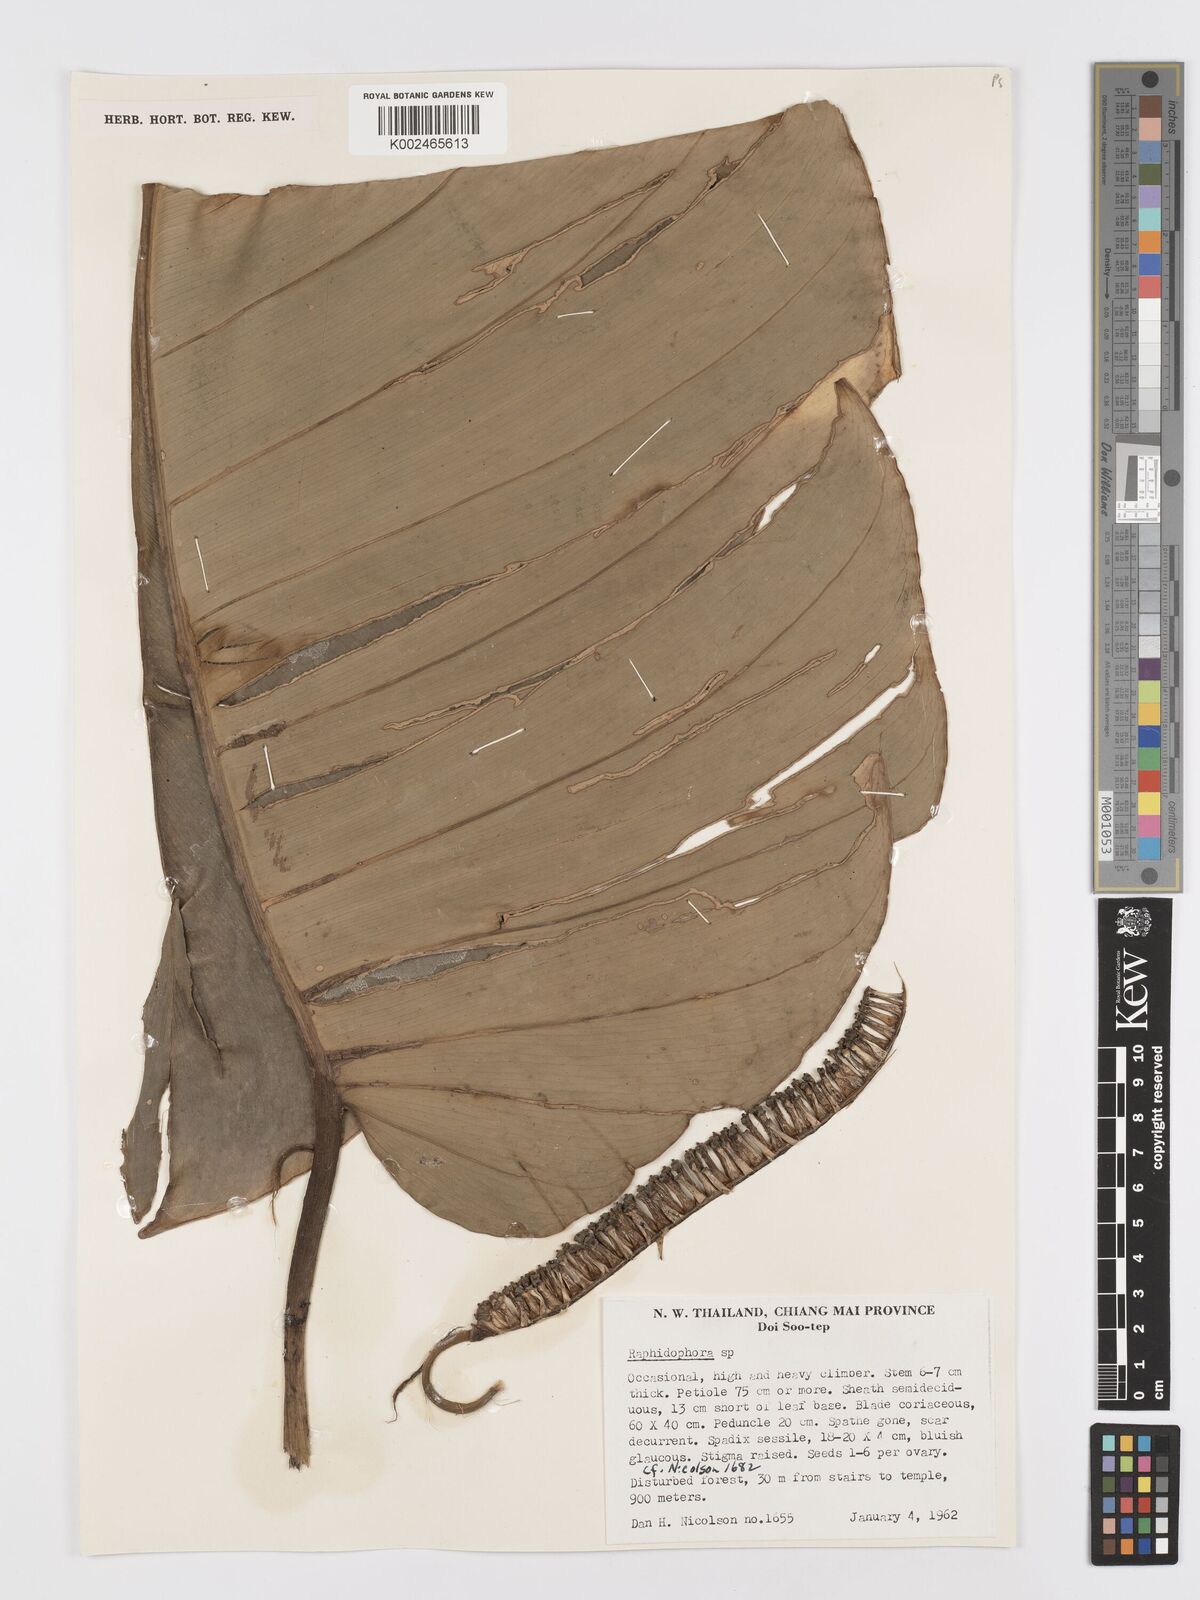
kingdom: Plantae
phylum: Tracheophyta
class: Liliopsida
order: Alismatales
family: Araceae
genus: Rhaphidophora
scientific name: Rhaphidophora megaphylla
